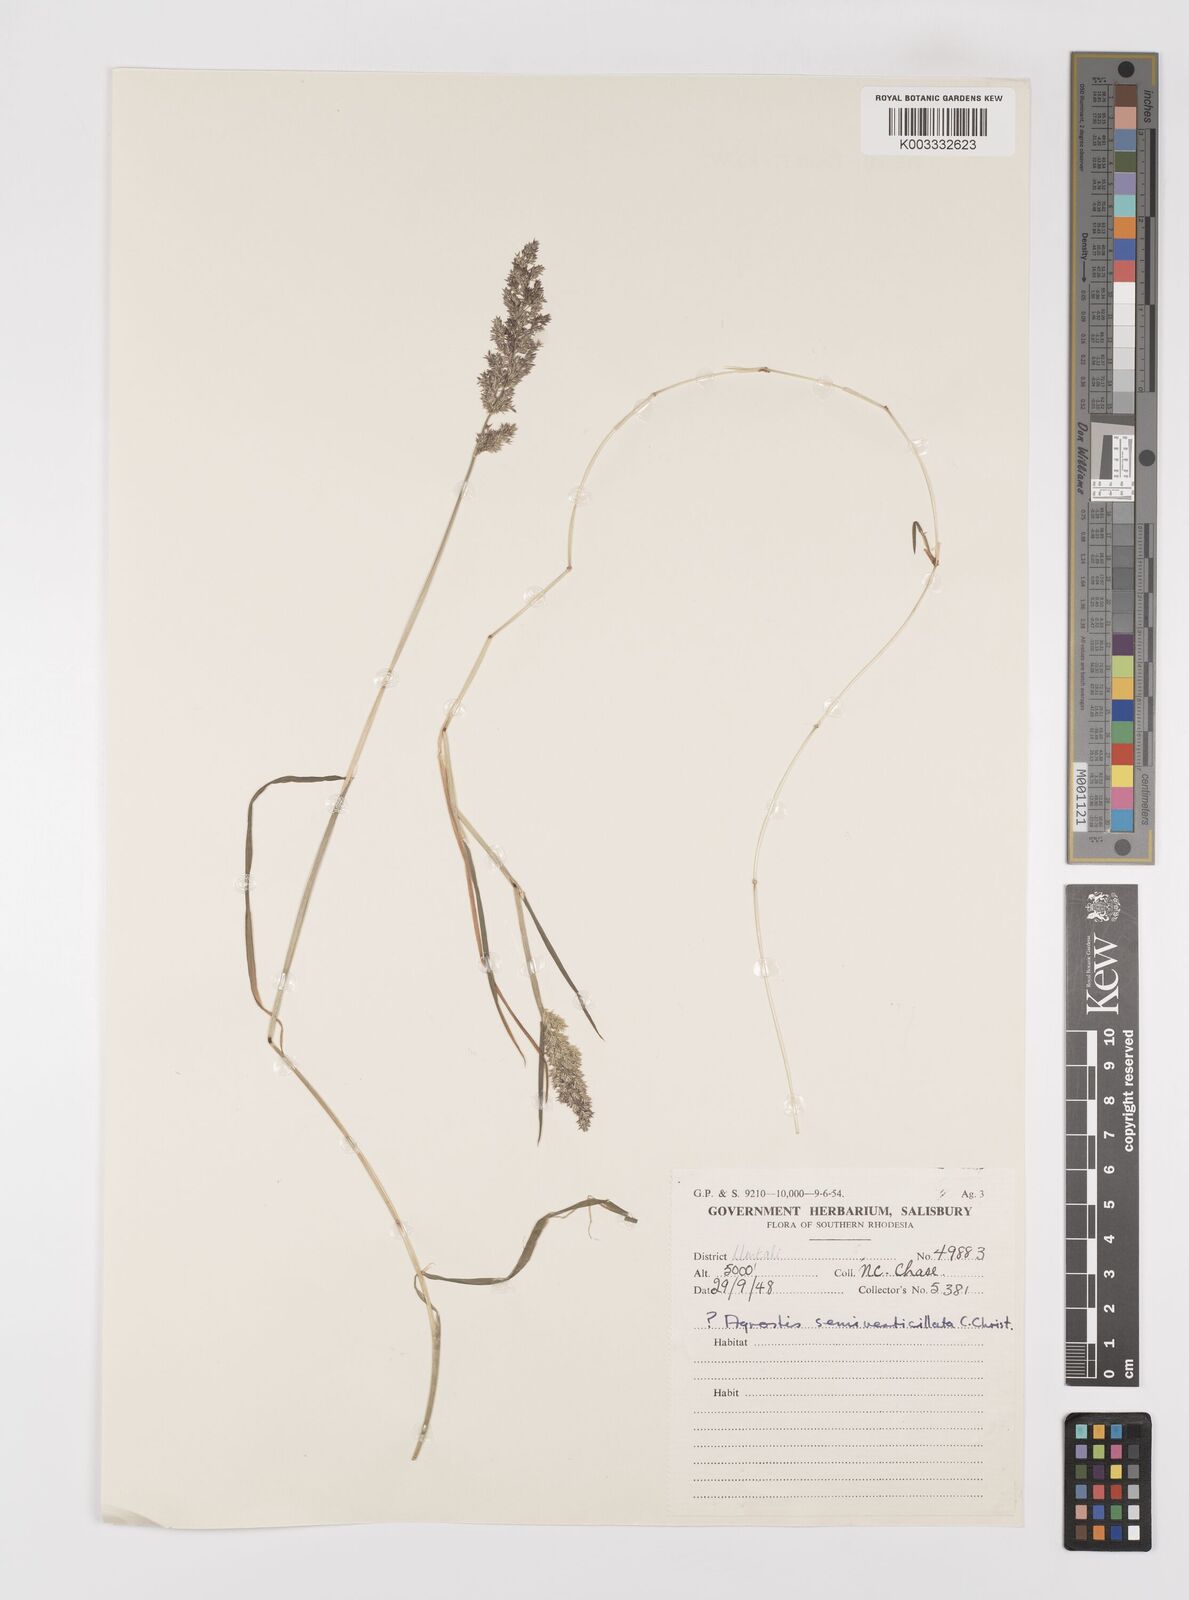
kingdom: Plantae
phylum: Tracheophyta
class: Liliopsida
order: Poales
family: Poaceae
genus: Polypogon
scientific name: Polypogon viridis
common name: Water bent
